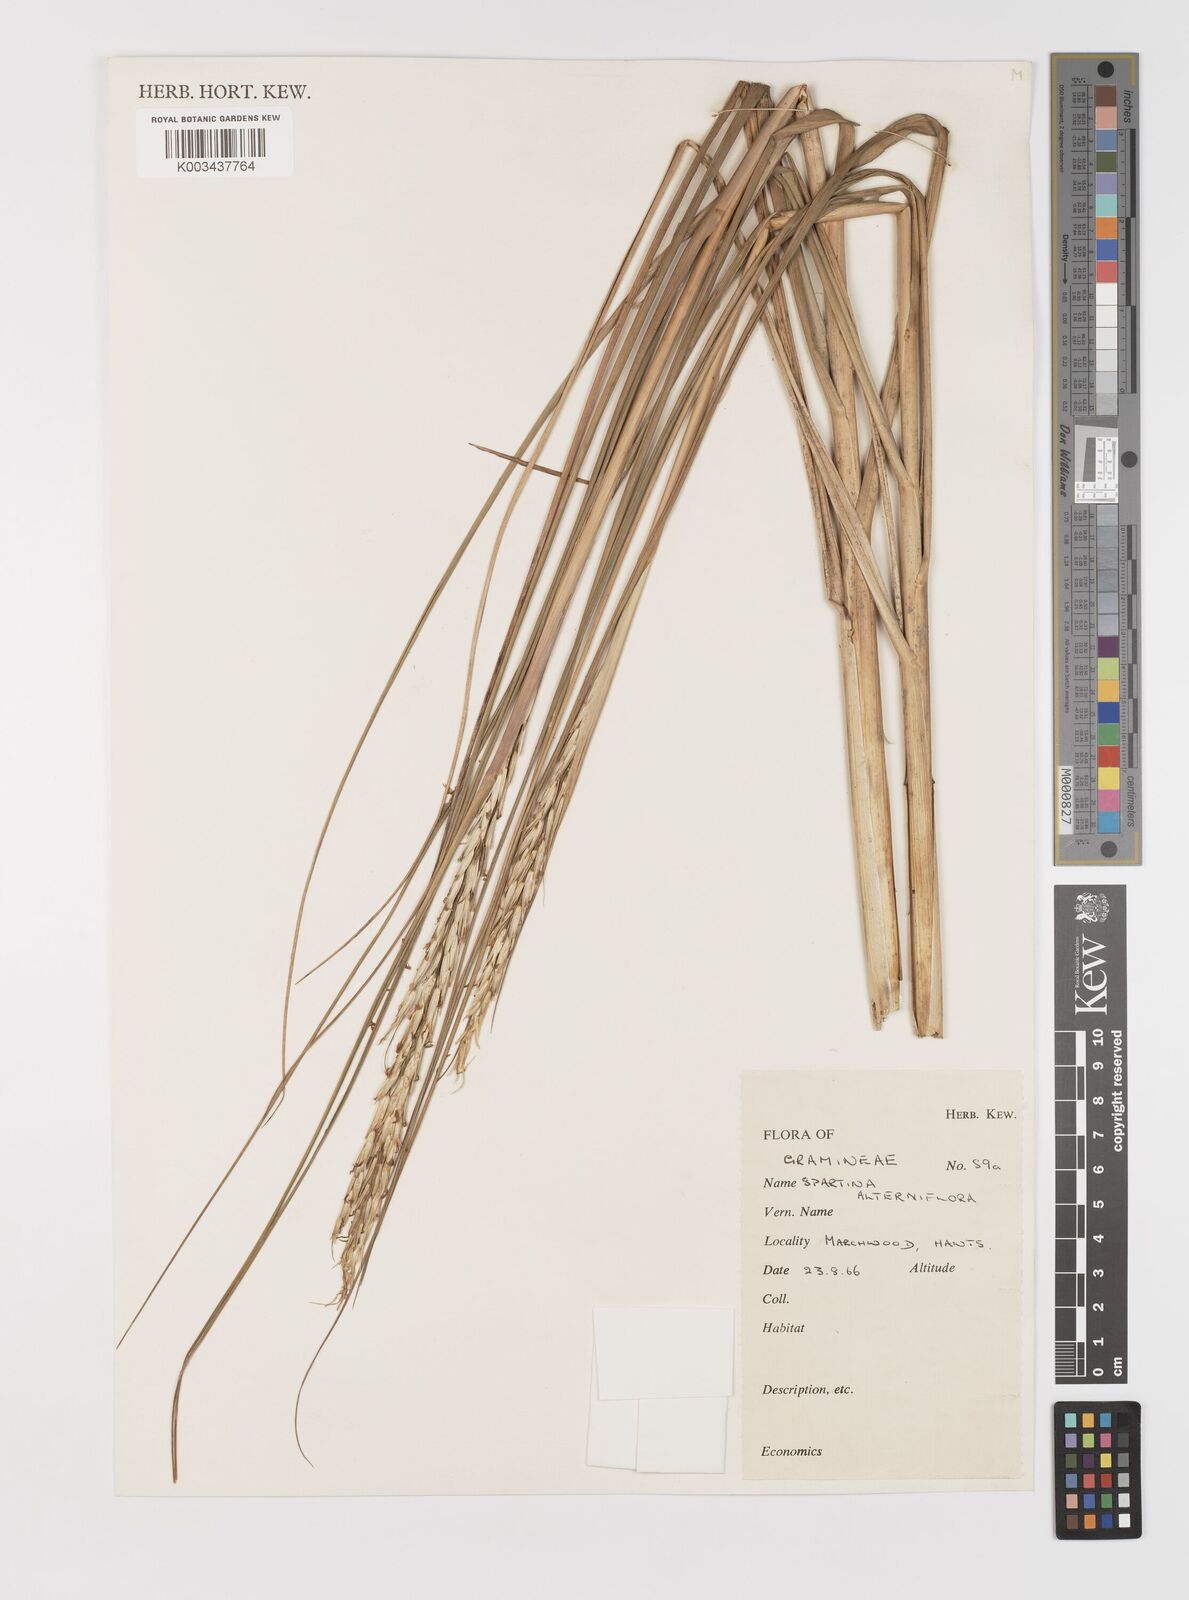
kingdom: Plantae
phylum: Tracheophyta
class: Liliopsida
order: Poales
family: Poaceae
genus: Sporobolus
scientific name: Sporobolus alterniflorus
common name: Atlantic cordgrass
